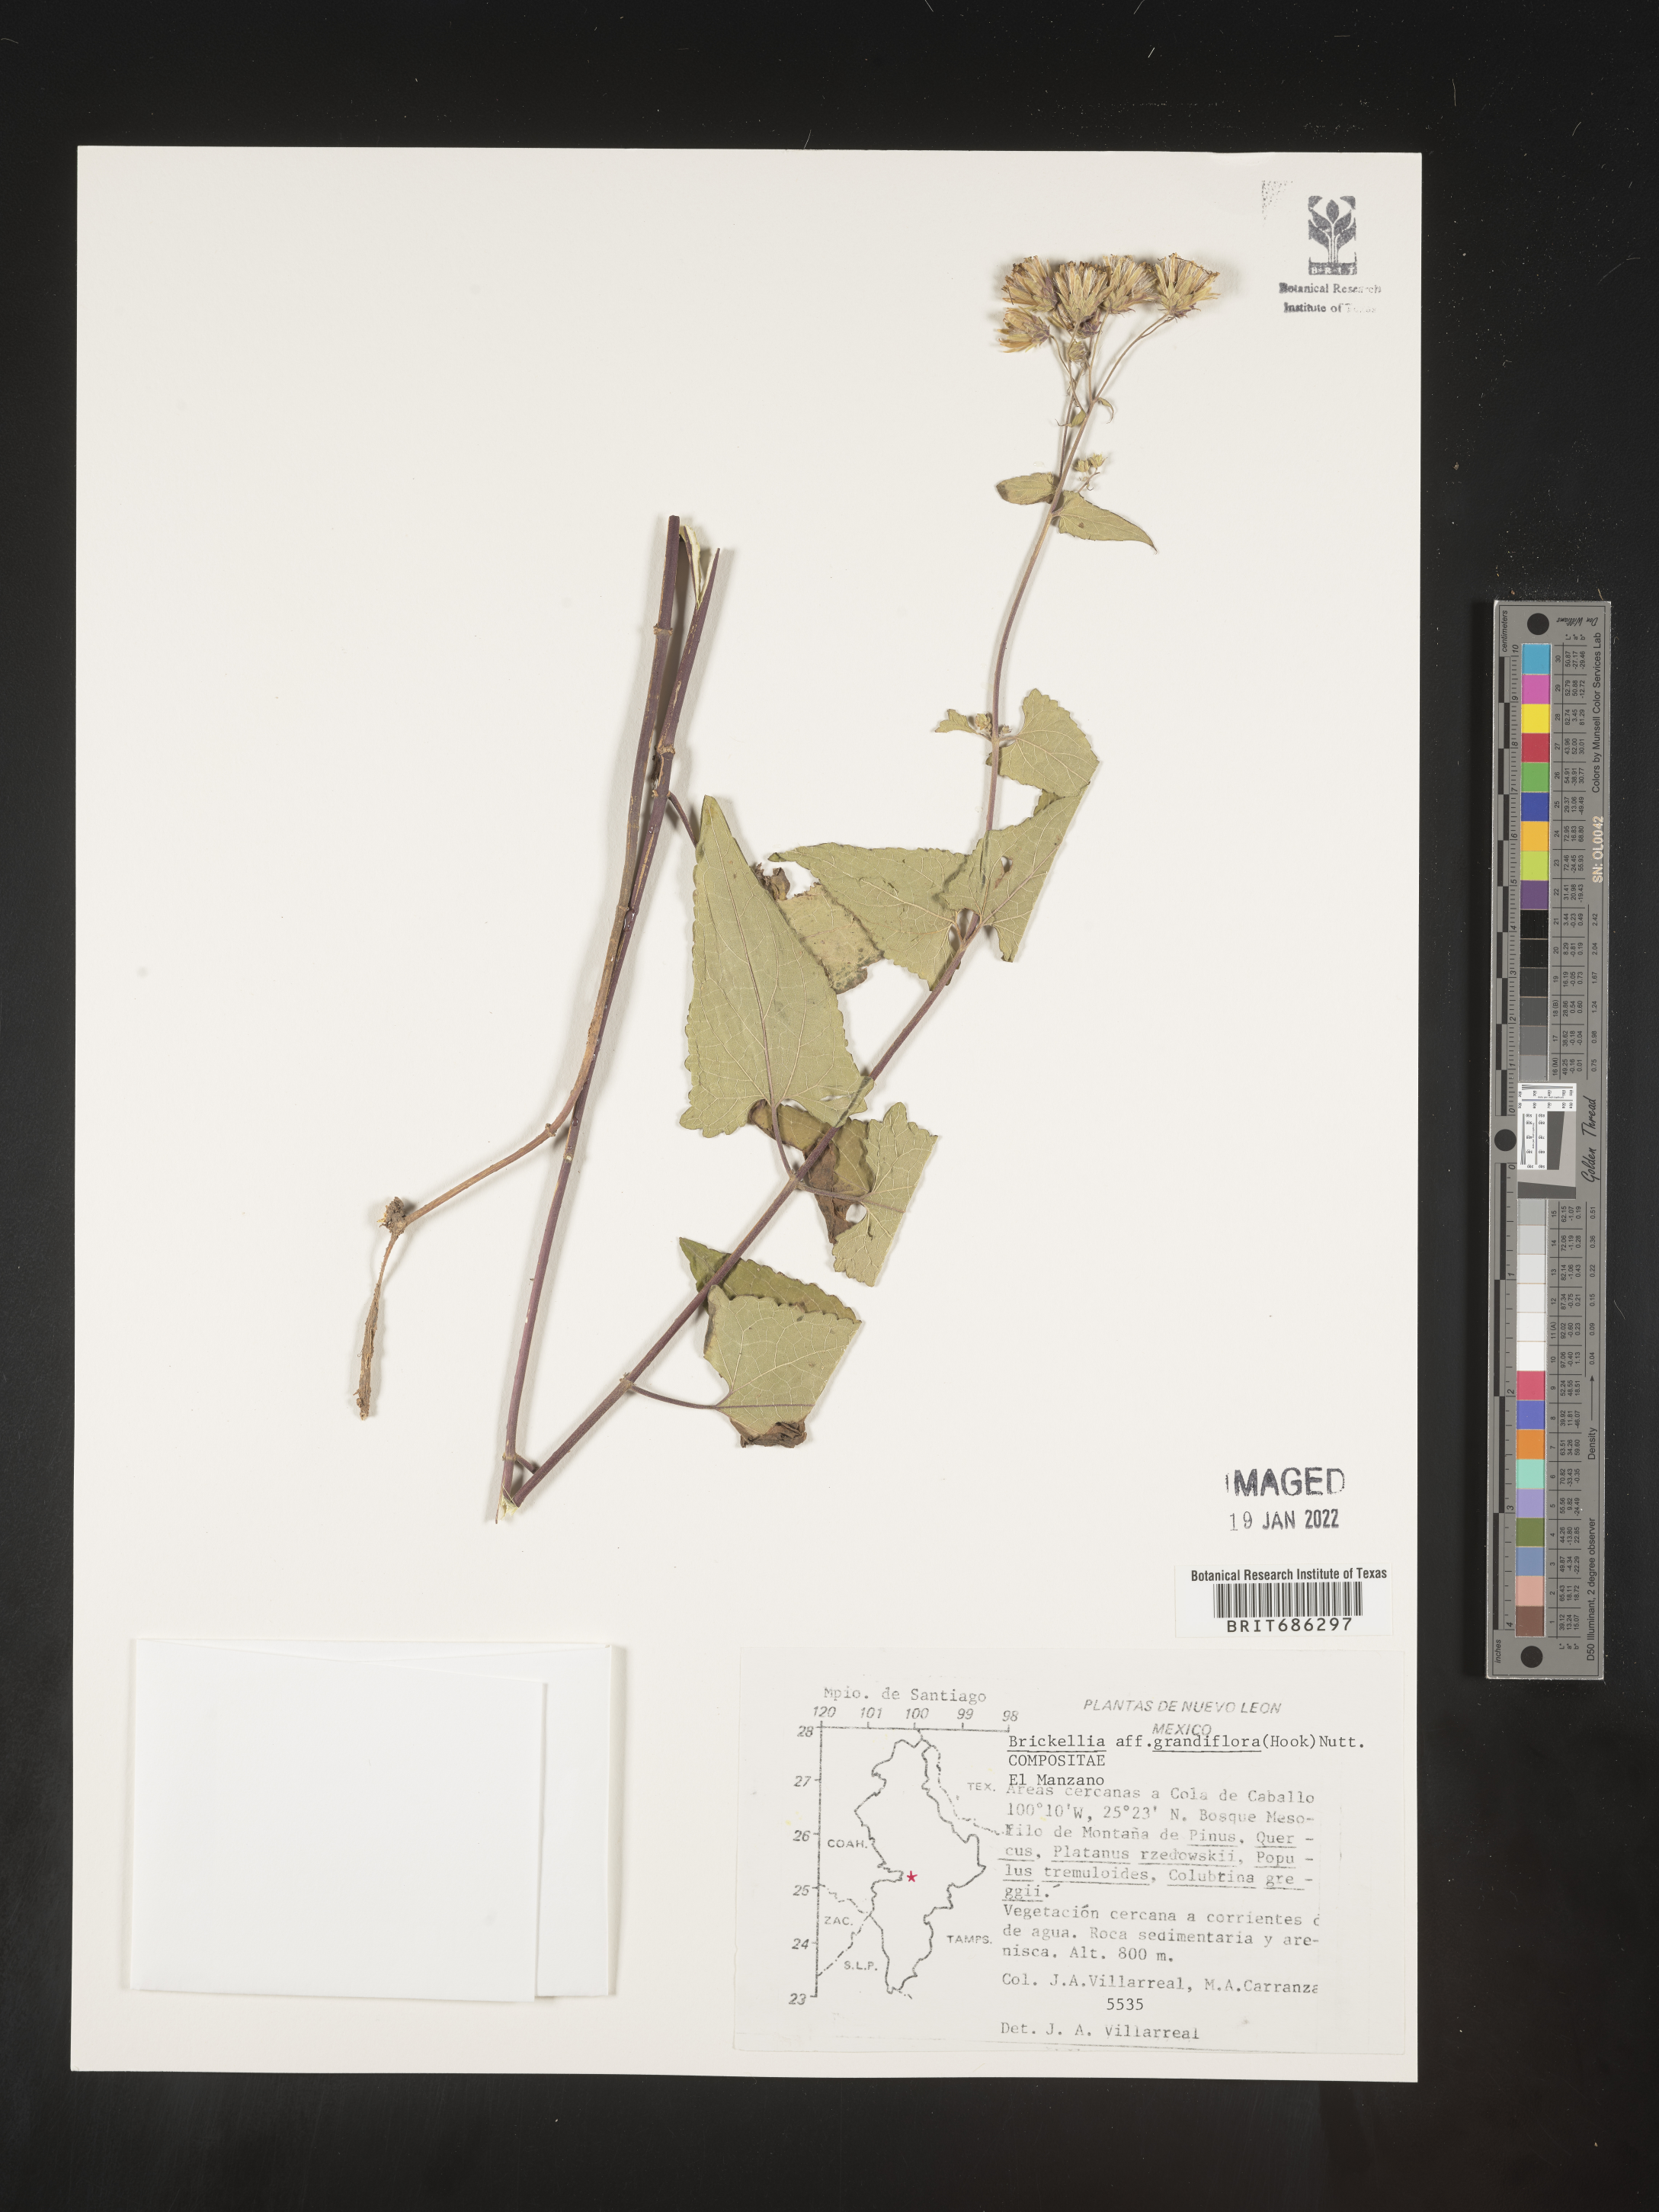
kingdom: Plantae
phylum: Tracheophyta
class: Magnoliopsida
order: Asterales
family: Asteraceae
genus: Brickellia
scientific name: Brickellia grandiflora
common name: Large-flowered brickellia
